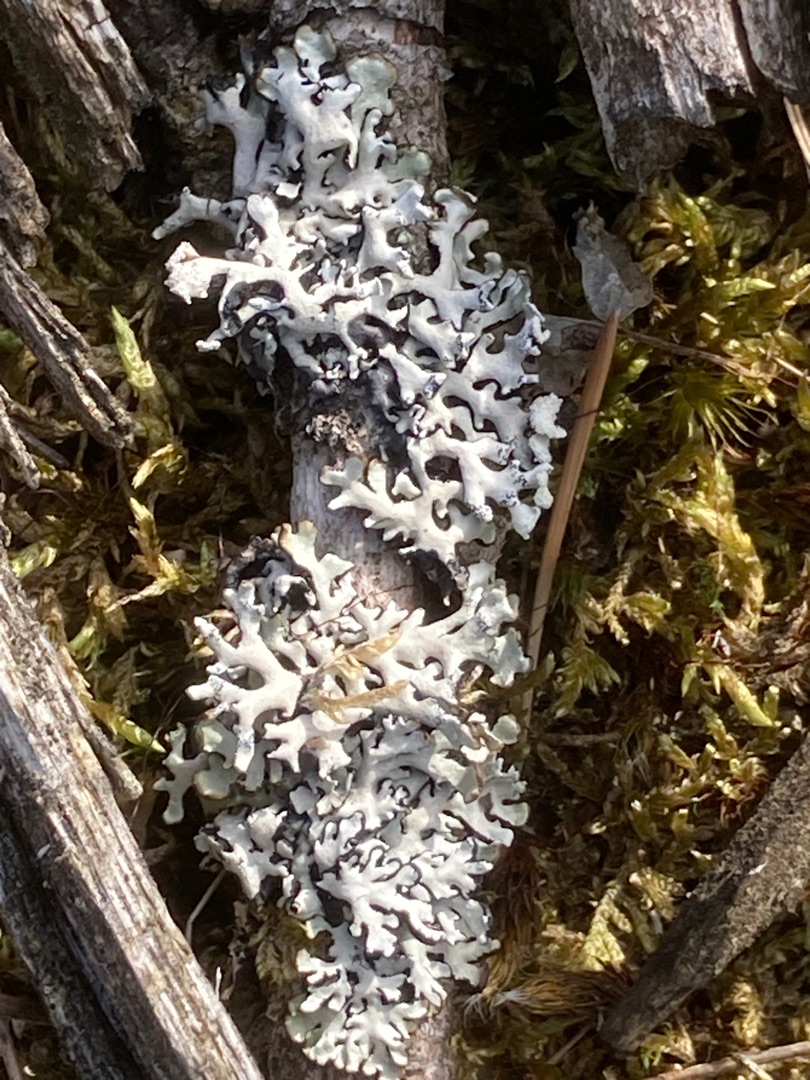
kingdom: Fungi
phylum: Ascomycota
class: Lecanoromycetes
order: Lecanorales
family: Parmeliaceae
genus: Hypogymnia
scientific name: Hypogymnia physodes
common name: Almindelig kvistlav
